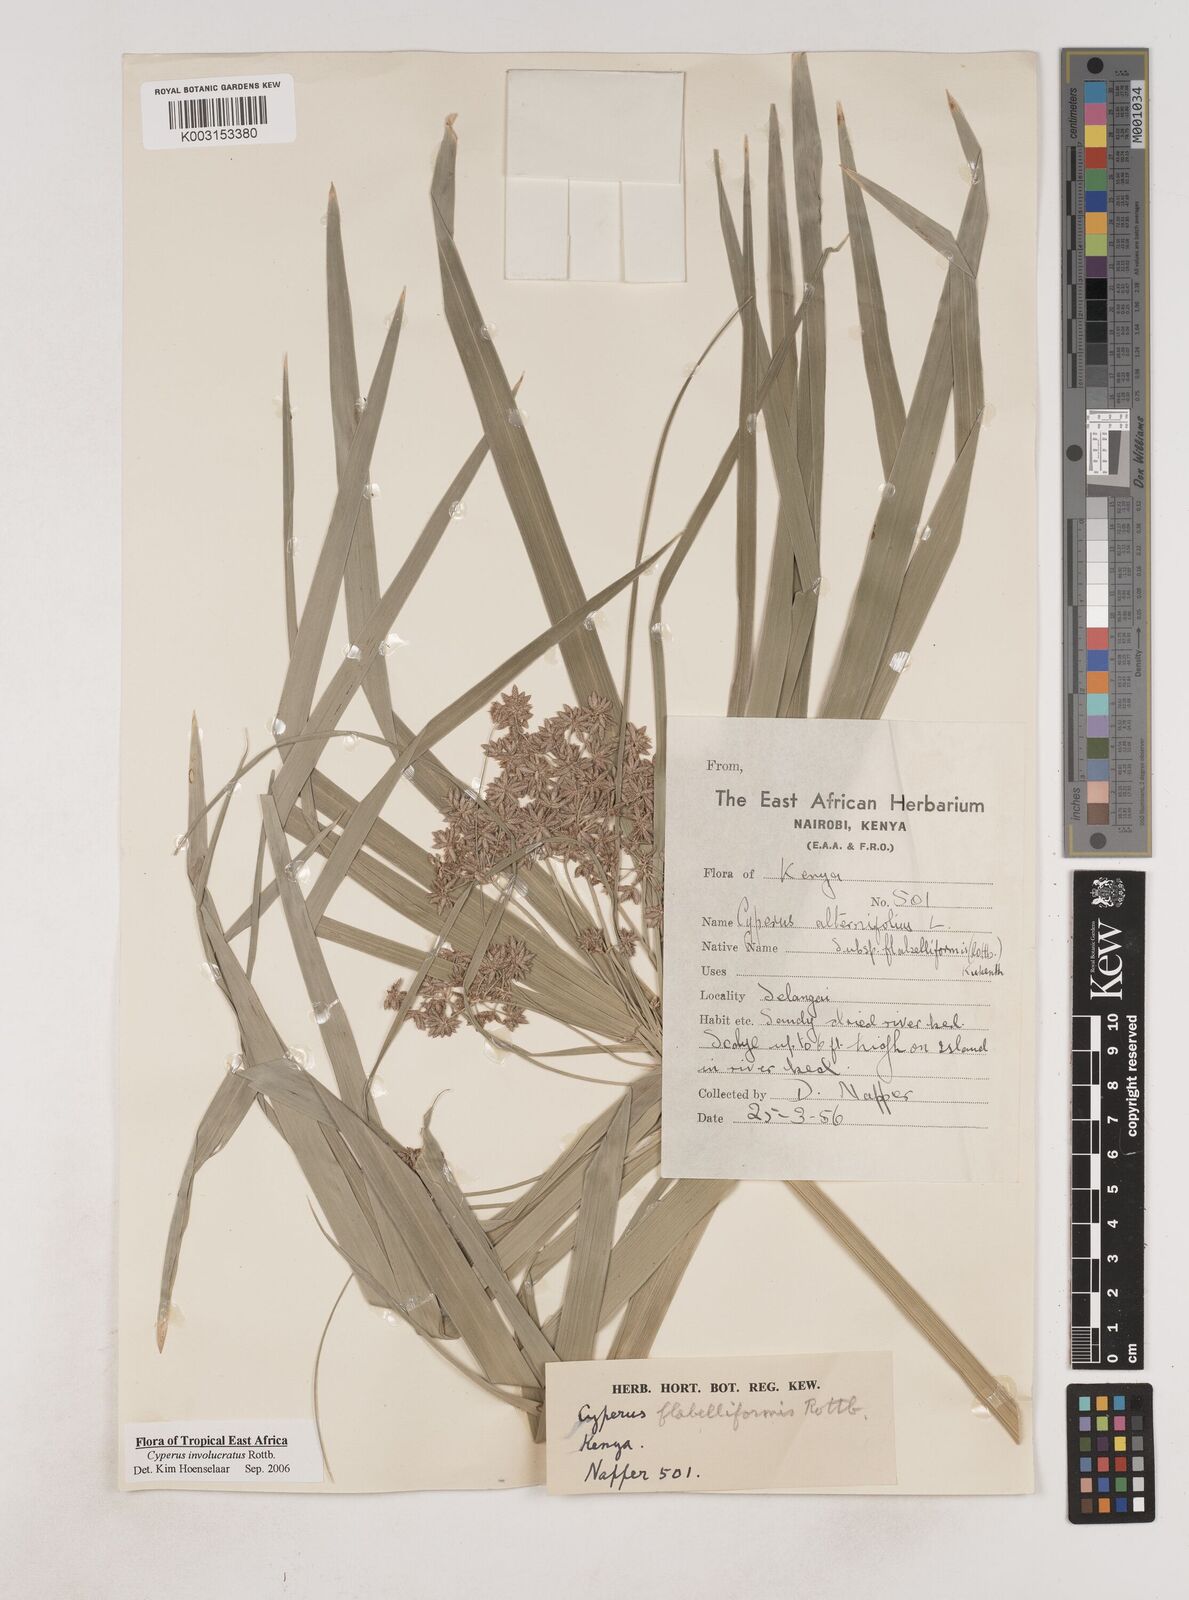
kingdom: Plantae
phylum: Tracheophyta
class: Liliopsida
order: Poales
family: Cyperaceae
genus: Cyperus
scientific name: Cyperus alternifolius
